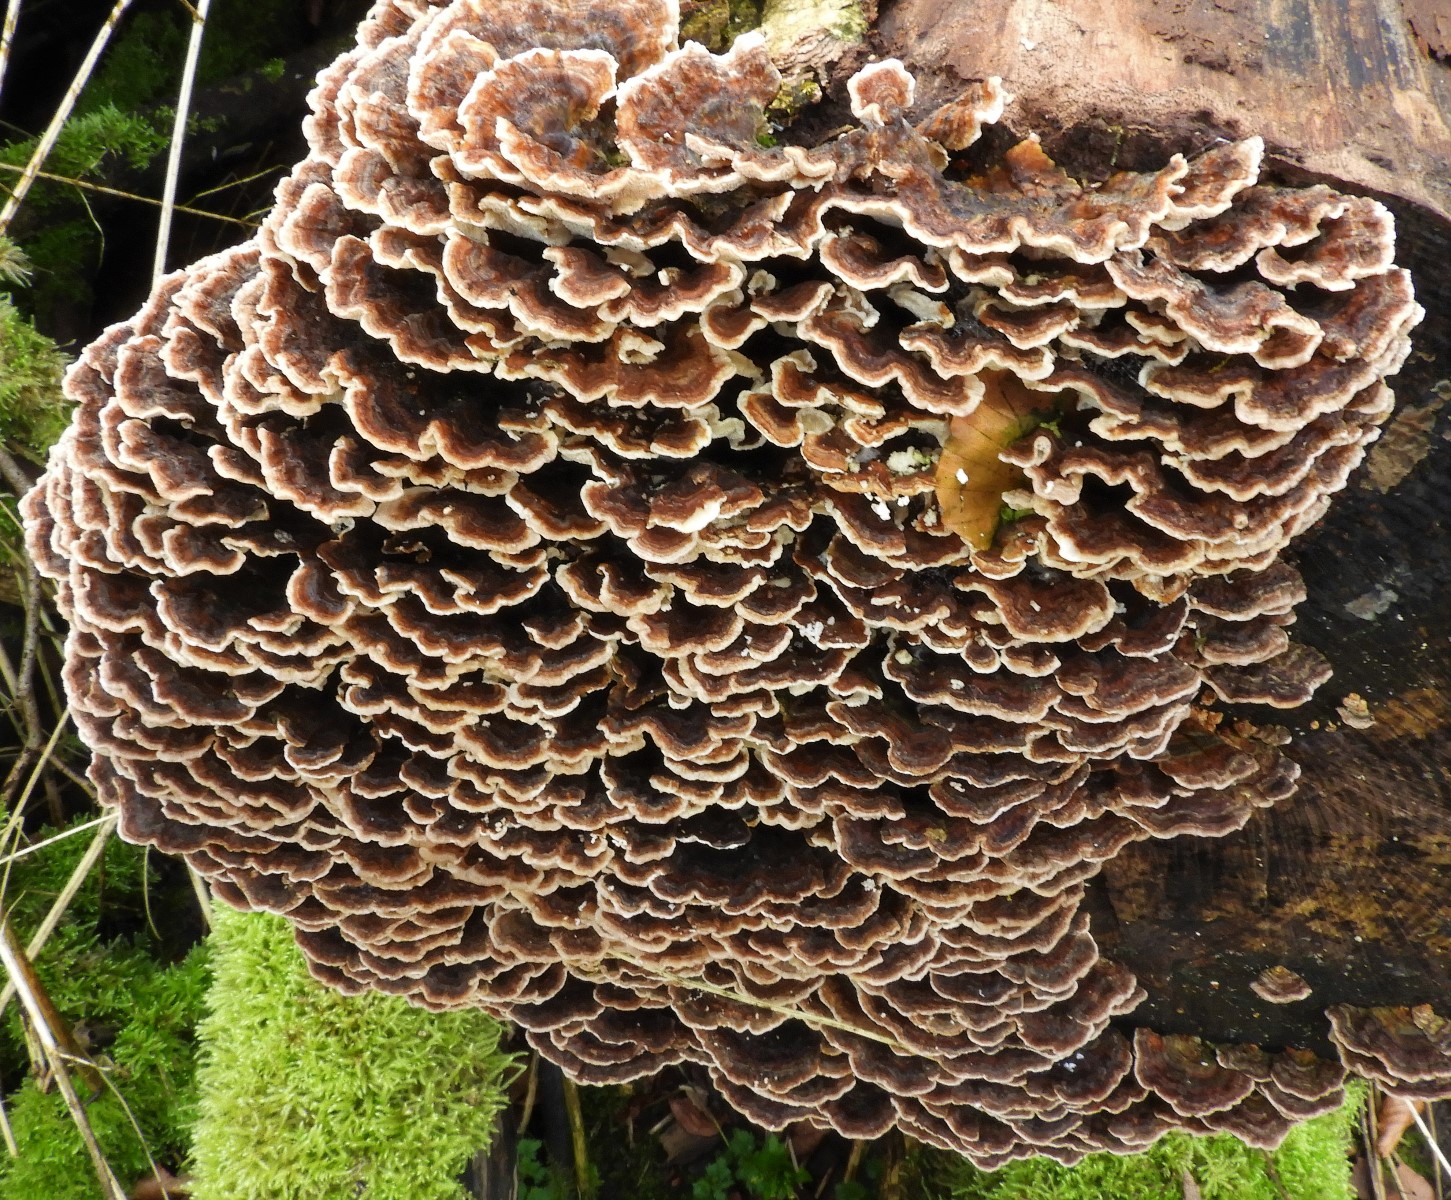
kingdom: Fungi
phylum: Basidiomycota
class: Agaricomycetes
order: Polyporales
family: Polyporaceae
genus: Trametes
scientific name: Trametes versicolor
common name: broget læderporesvamp
